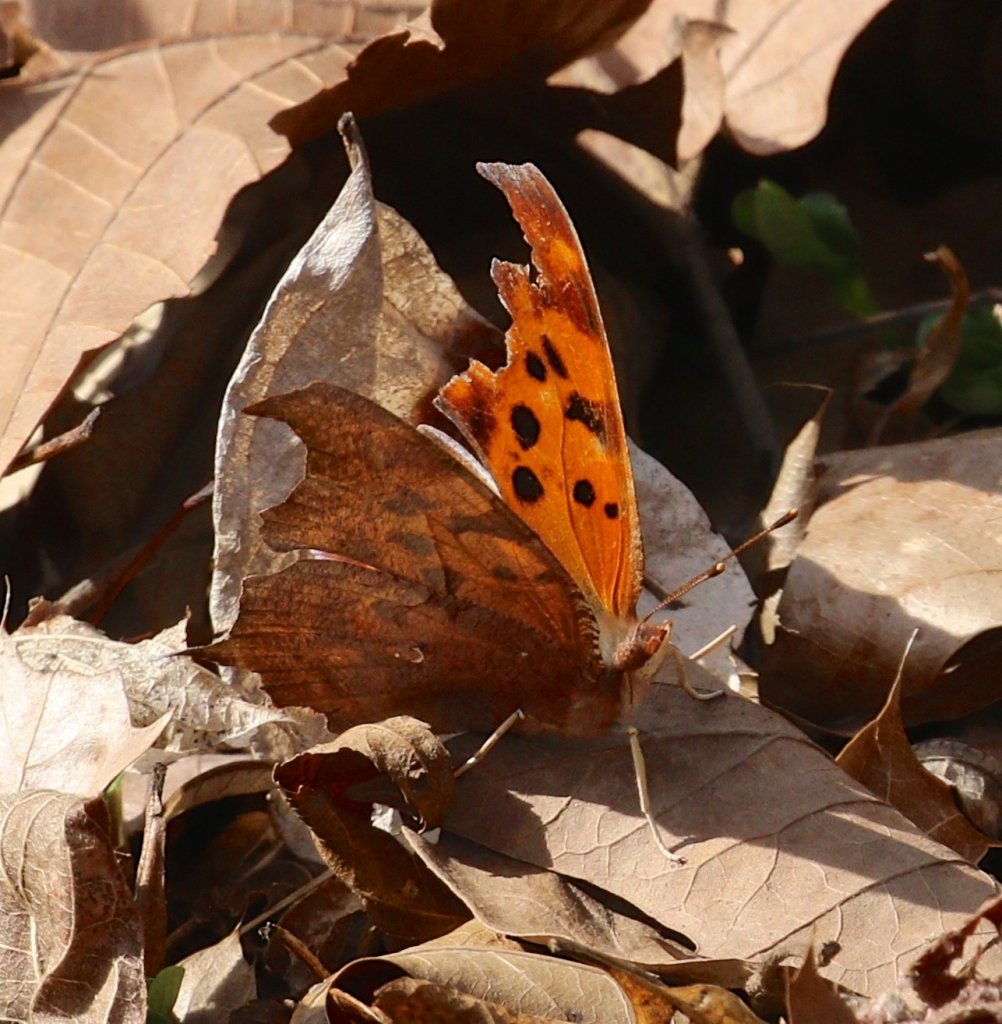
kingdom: Animalia
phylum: Arthropoda
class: Insecta
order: Lepidoptera
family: Nymphalidae
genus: Polygonia
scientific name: Polygonia interrogationis
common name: Question Mark
